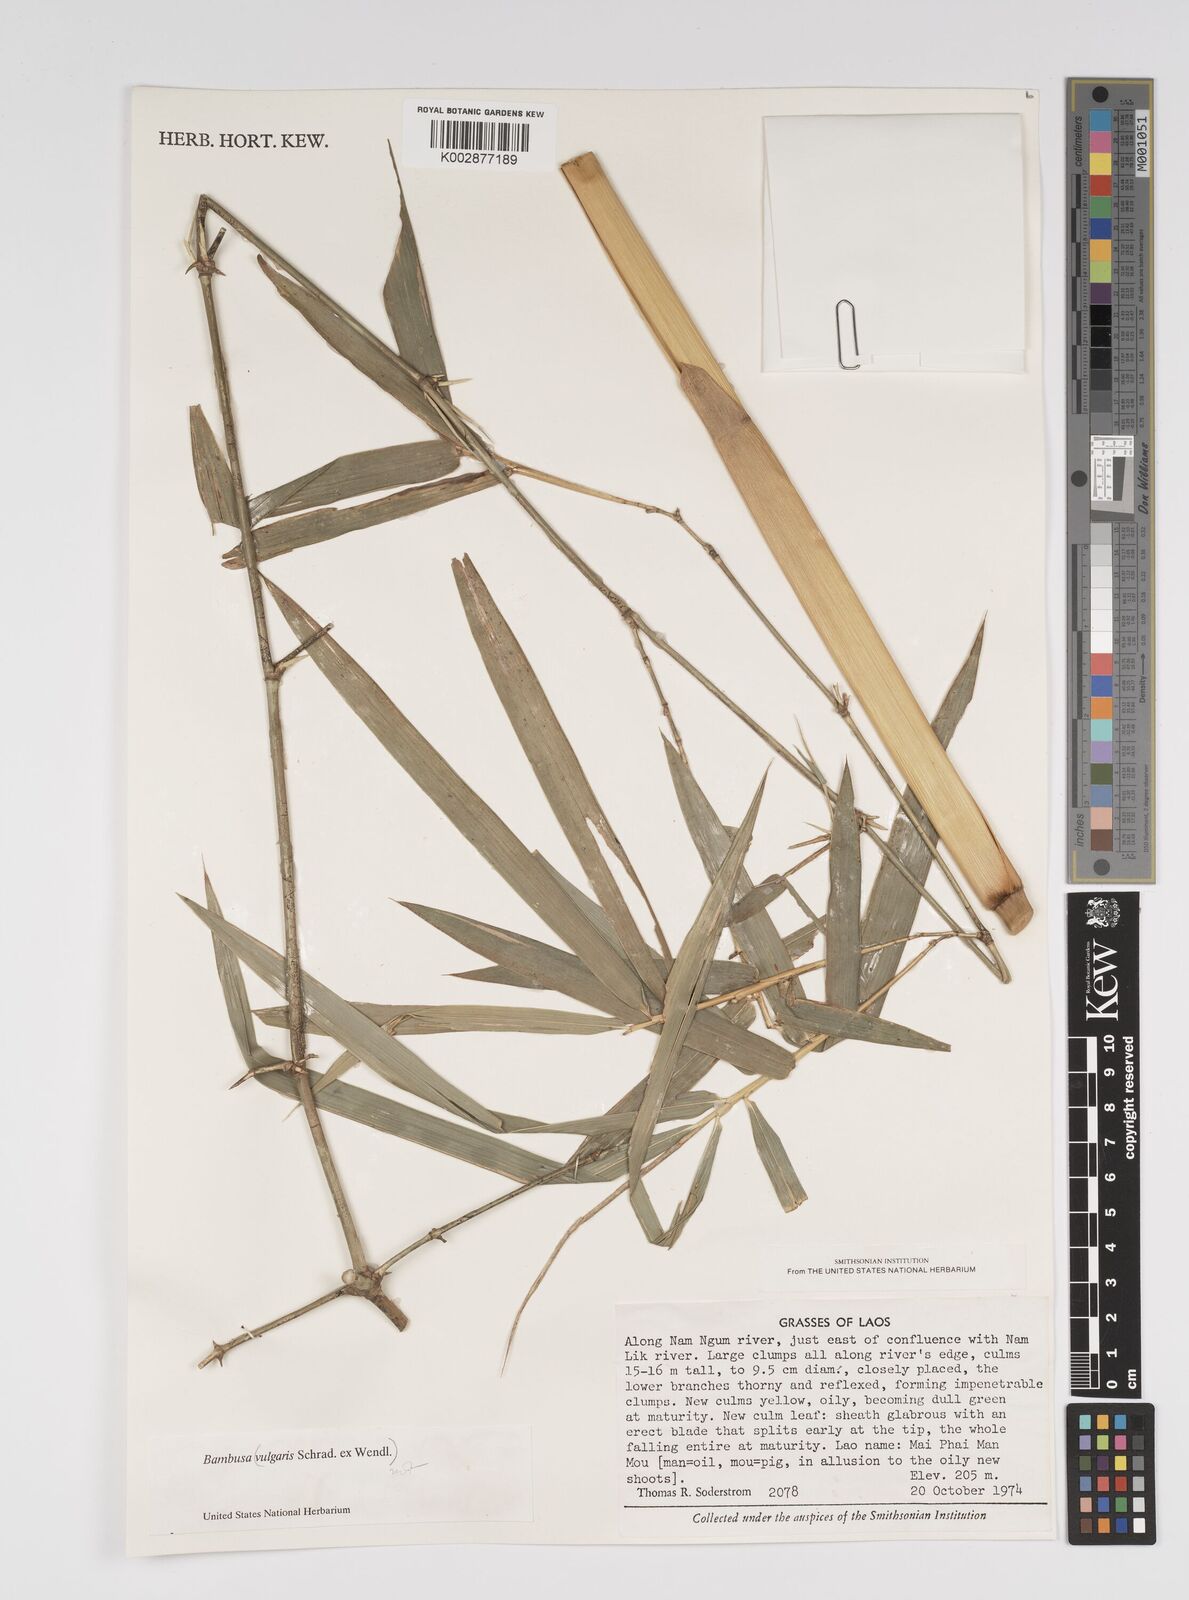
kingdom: Plantae
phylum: Tracheophyta
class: Liliopsida
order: Poales
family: Poaceae
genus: Bambusa
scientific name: Bambusa
